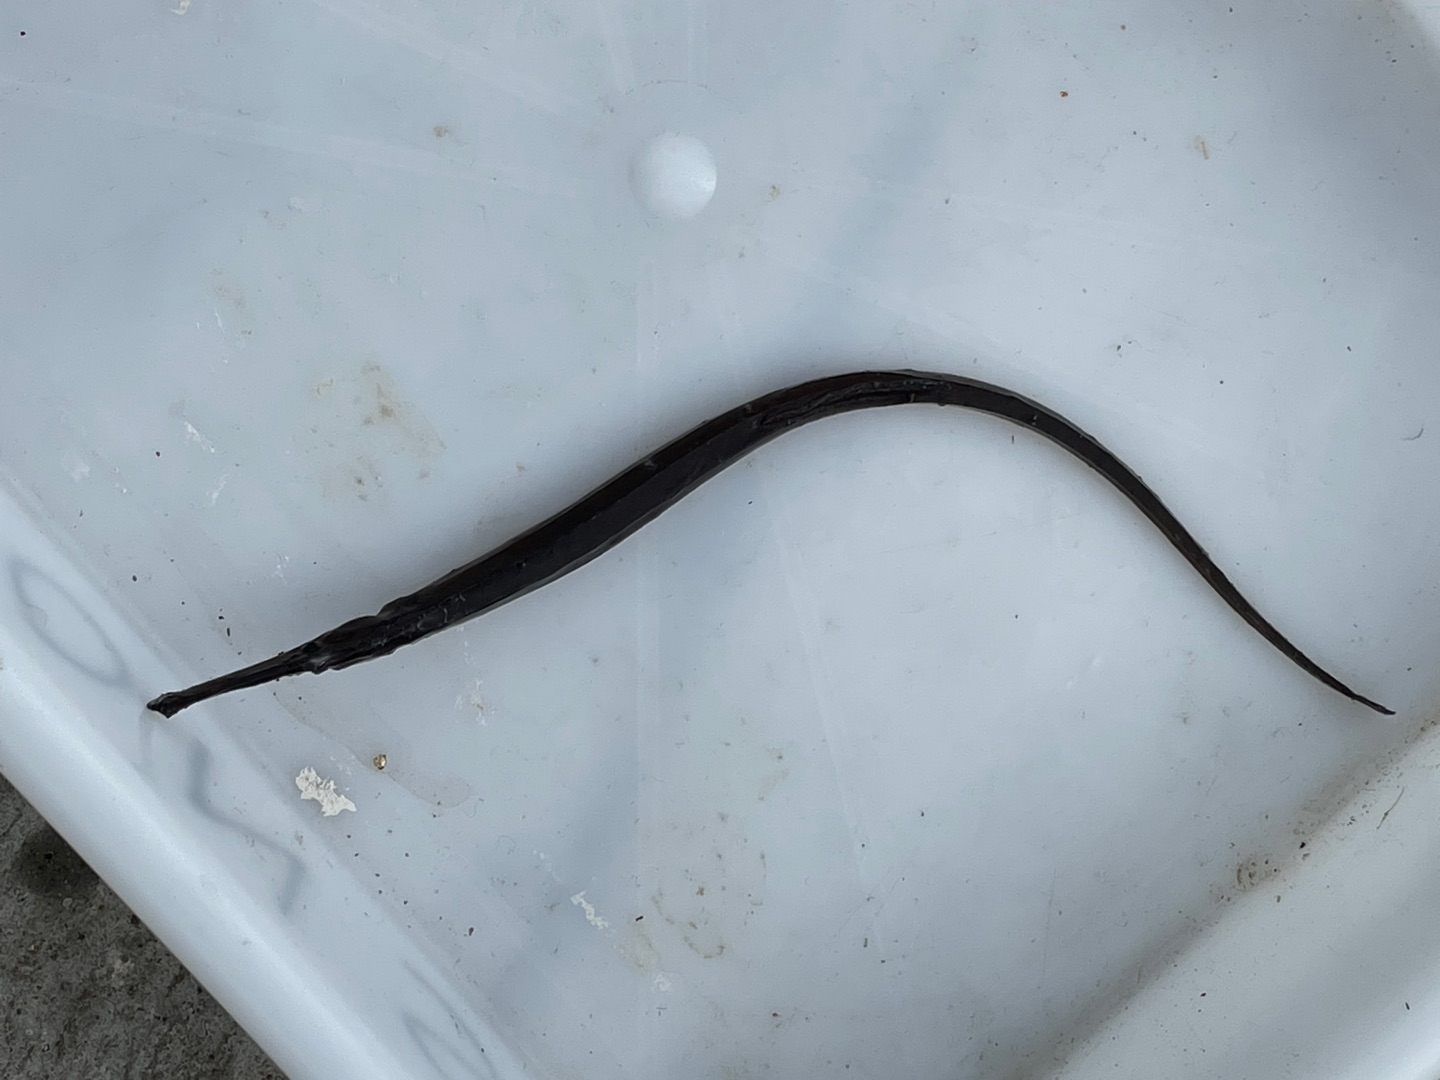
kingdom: Animalia
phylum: Chordata
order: Syngnathiformes
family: Syngnathidae
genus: Syngnathus
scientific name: Syngnathus typhle
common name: Almindelig tangnål
